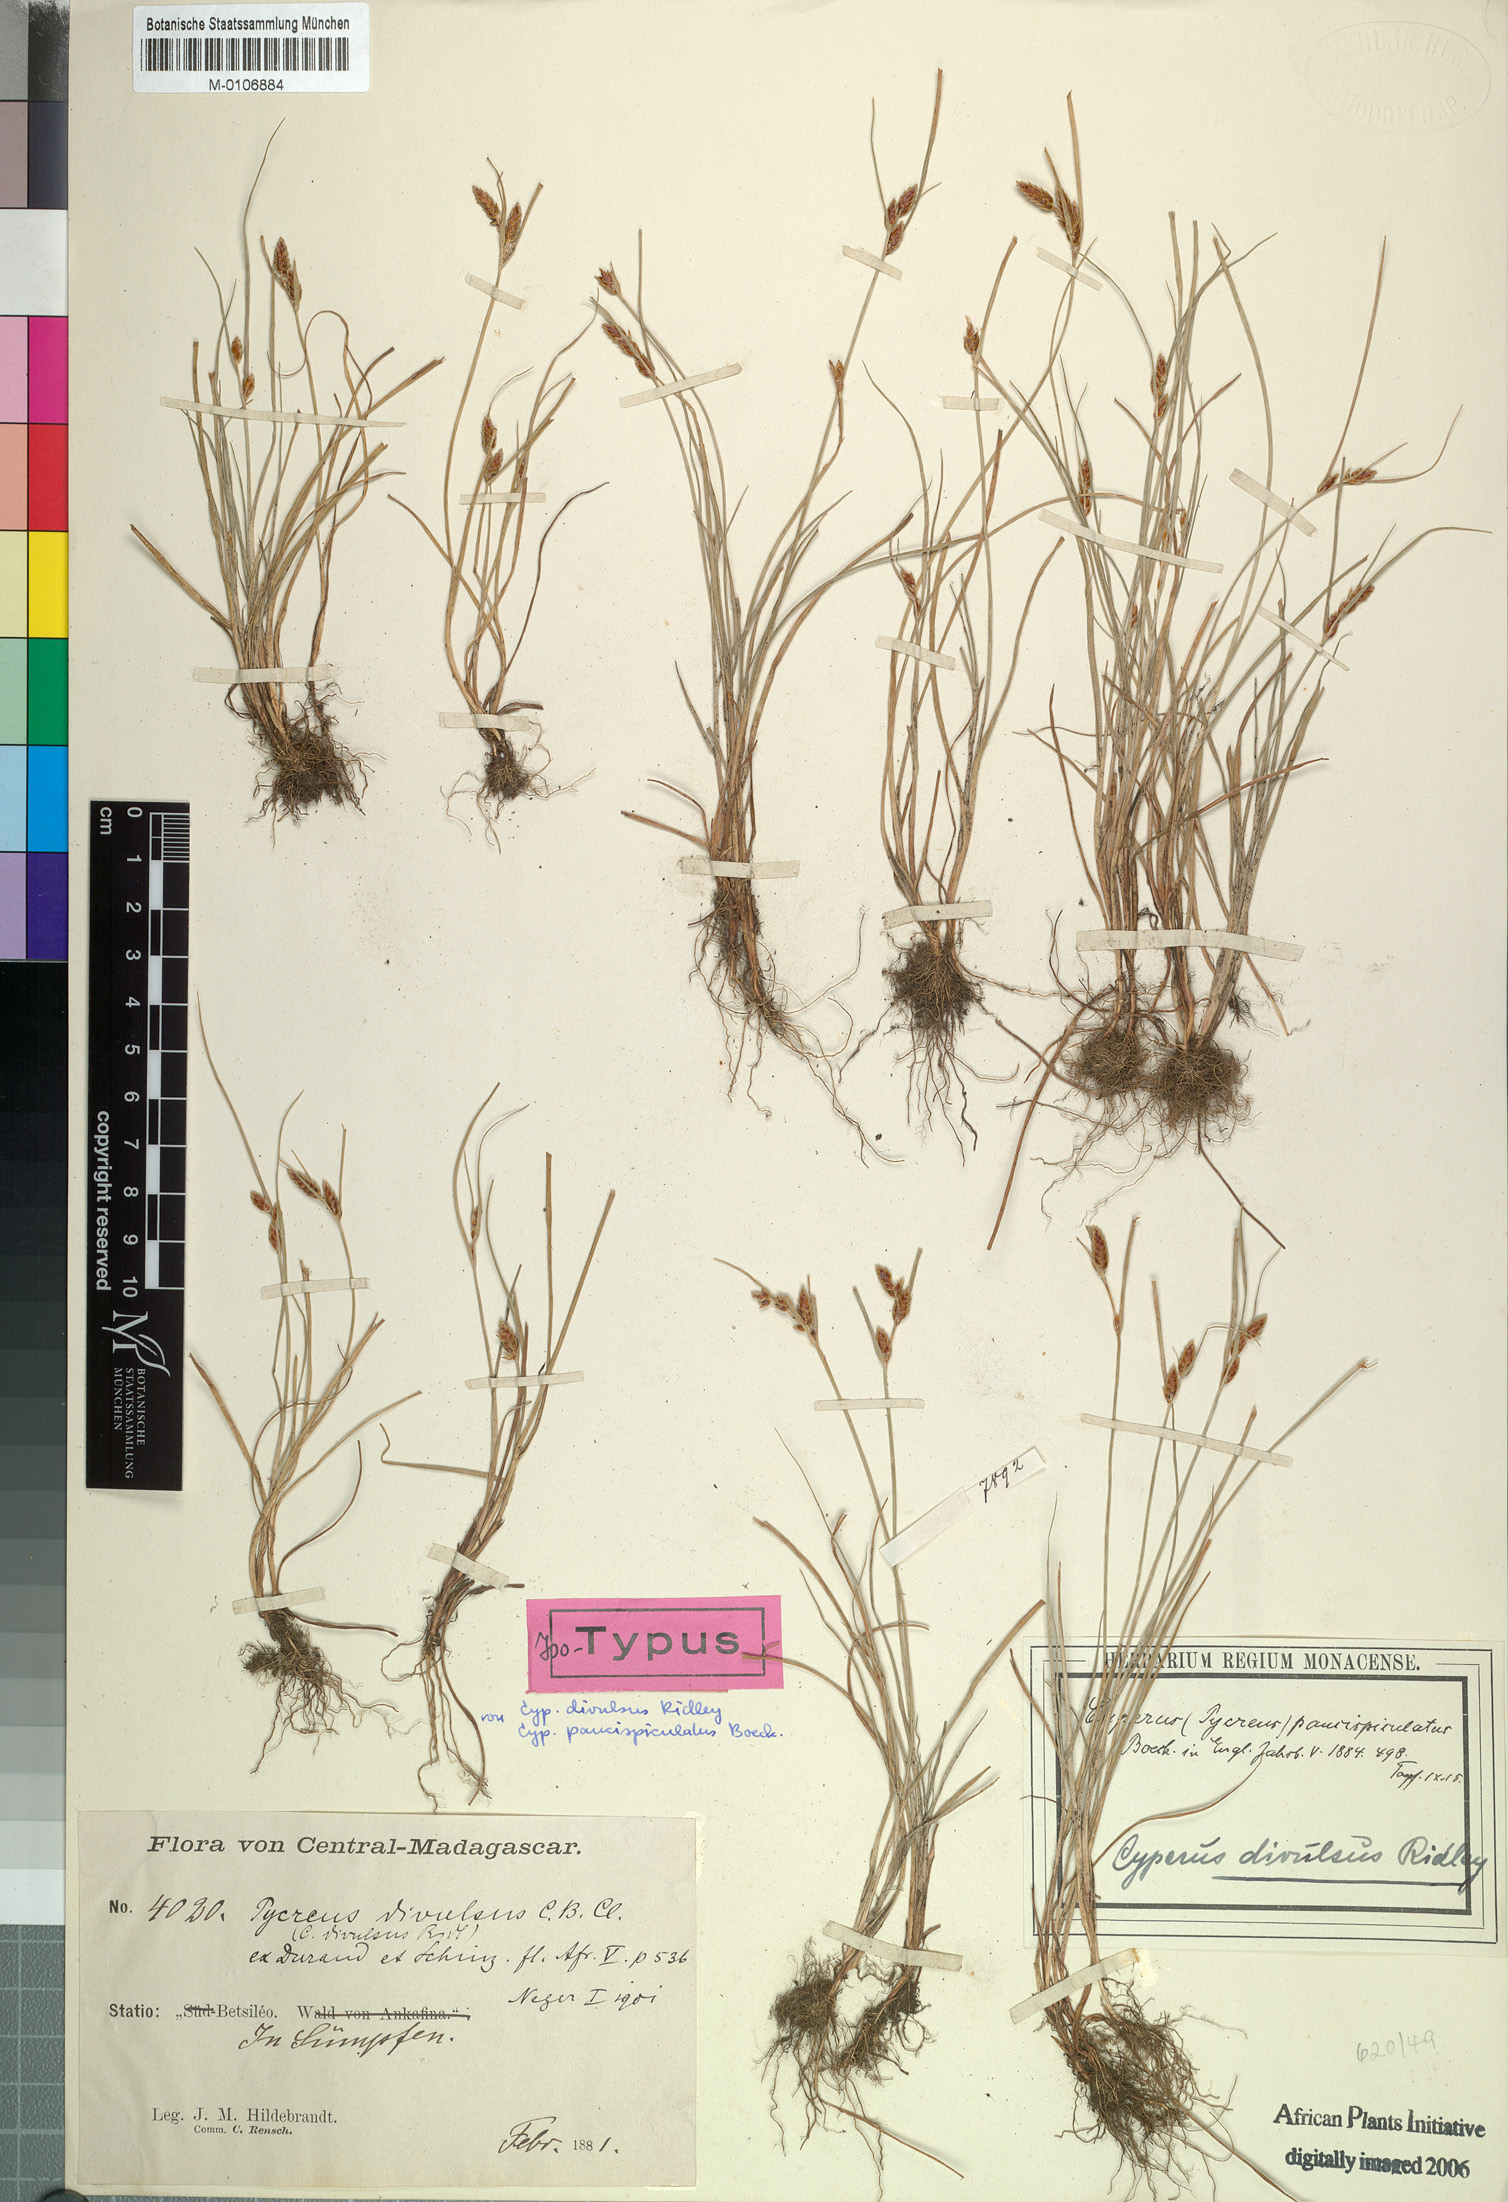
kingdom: Plantae
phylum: Tracheophyta
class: Liliopsida
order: Poales
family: Cyperaceae
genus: Cyperus
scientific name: Cyperus divulsus
